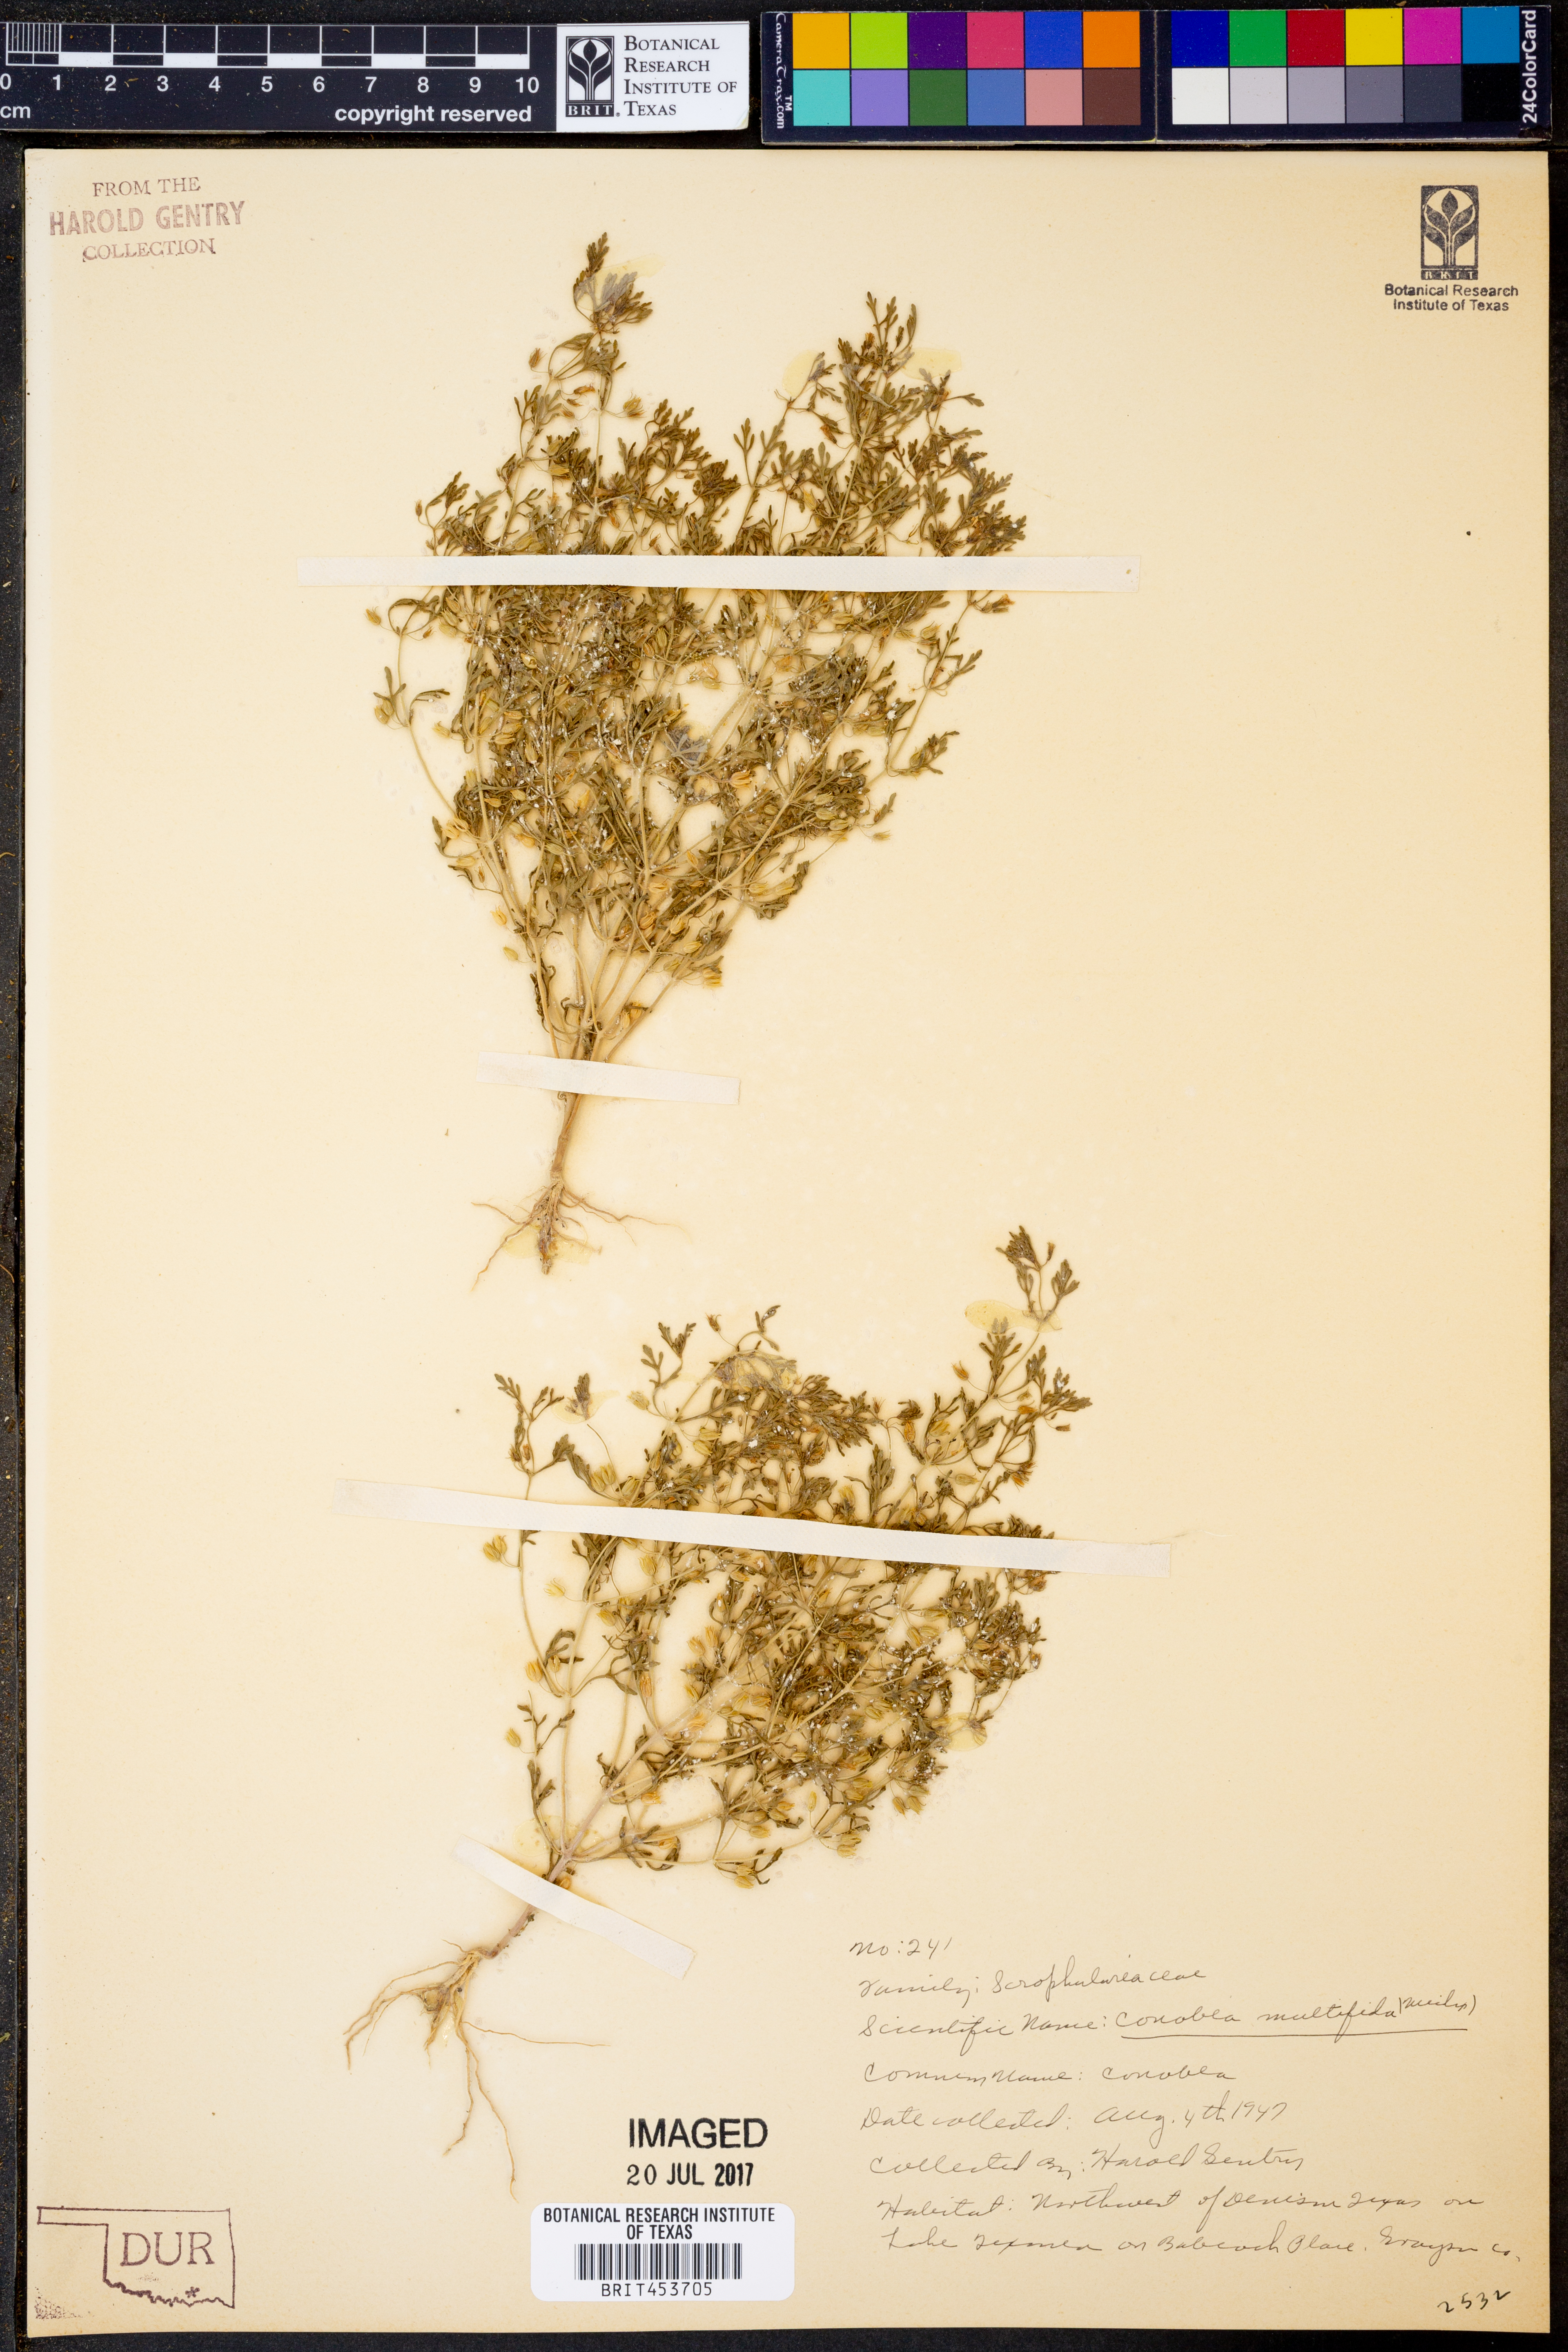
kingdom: Plantae
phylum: Tracheophyta
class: Magnoliopsida
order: Lamiales
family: Plantaginaceae
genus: Leucospora
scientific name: Leucospora multifida
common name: Narrow-leaf paleseed
